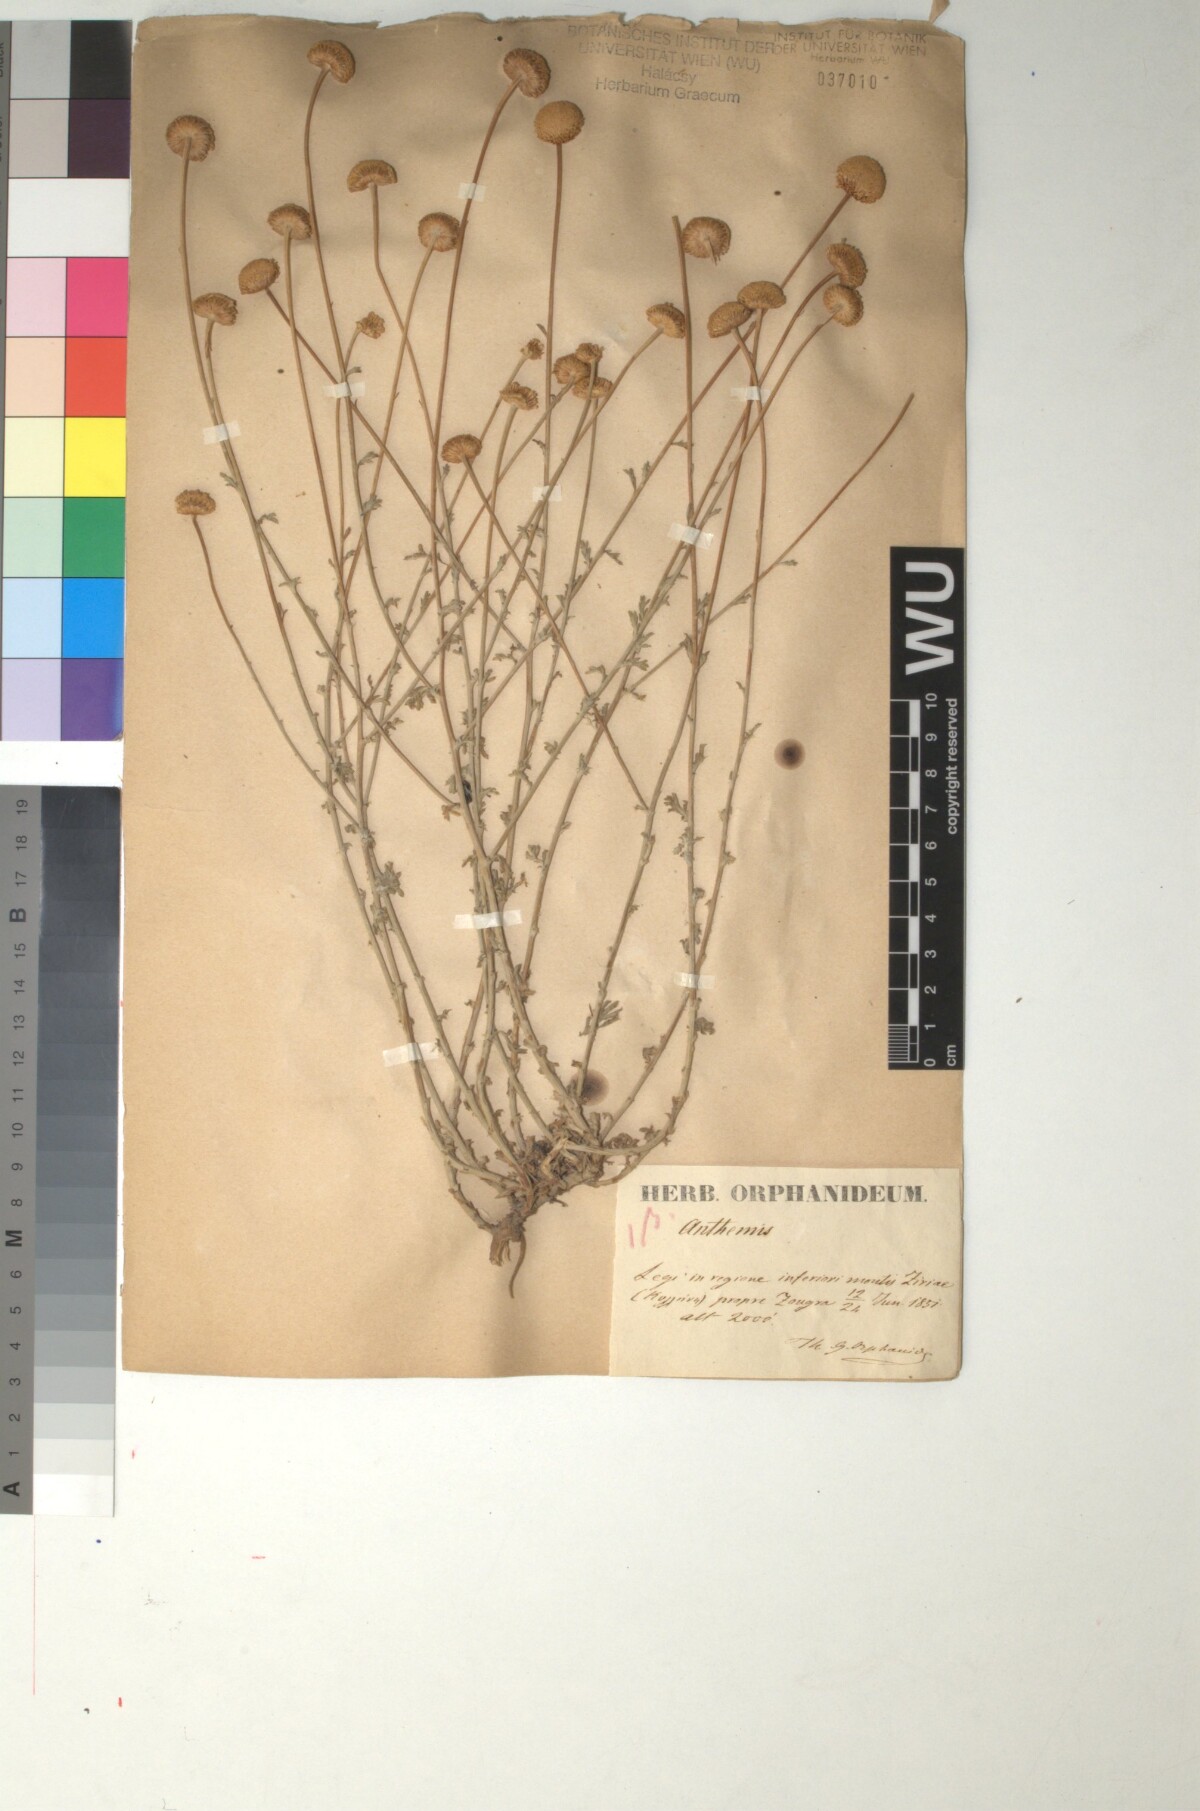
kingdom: Plantae
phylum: Tracheophyta
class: Magnoliopsida
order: Asterales
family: Asteraceae
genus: Anthemis
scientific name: Anthemis
